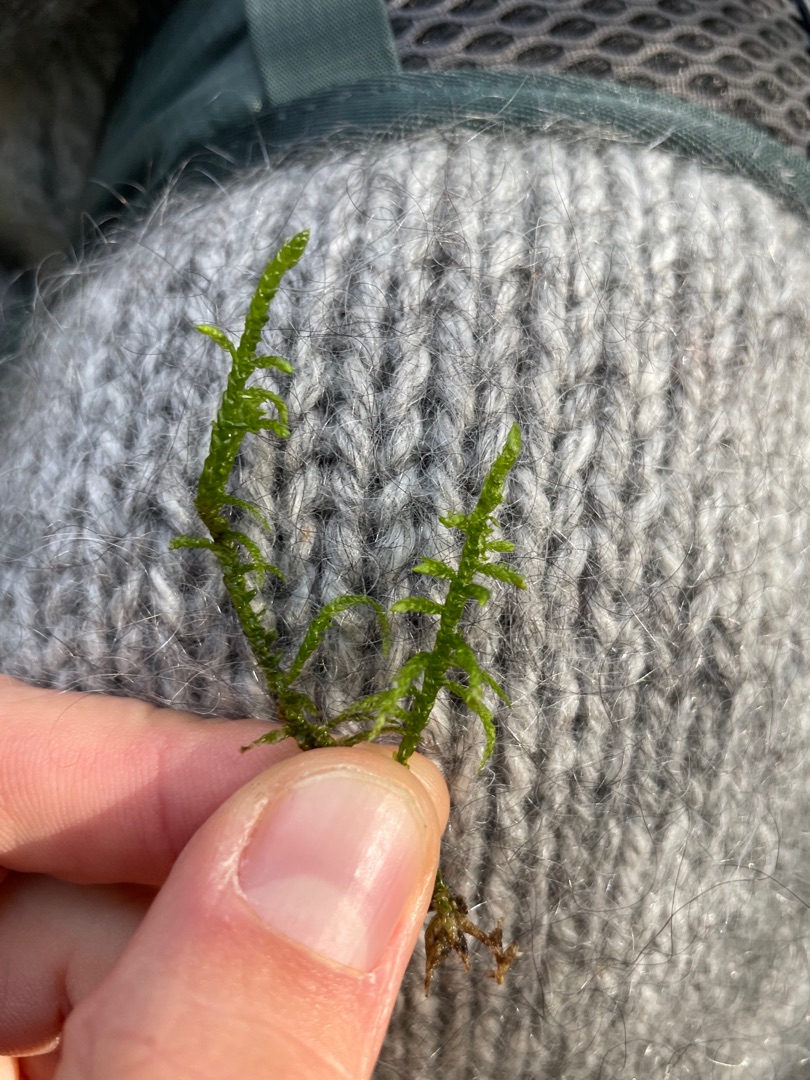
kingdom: Plantae
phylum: Bryophyta
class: Bryopsida
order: Hypnales
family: Brachytheciaceae
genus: Pseudoscleropodium
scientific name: Pseudoscleropodium purum
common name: Hulbladet fedtmos
